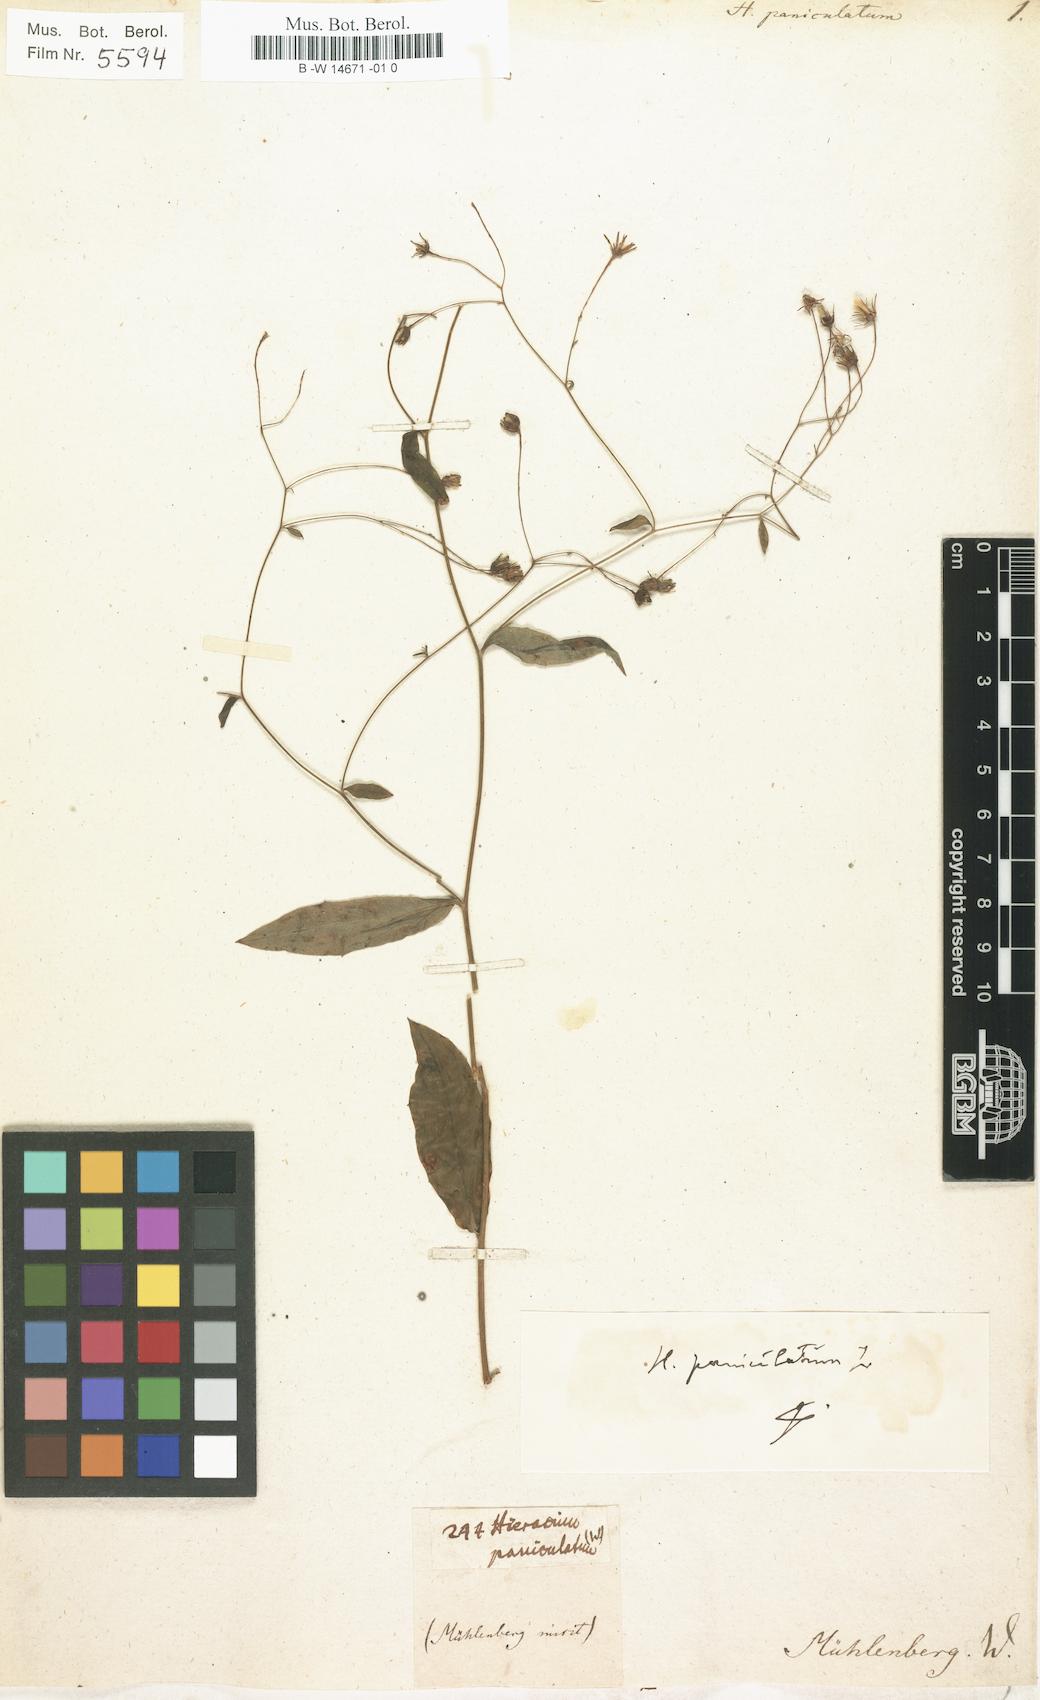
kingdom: Plantae
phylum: Tracheophyta
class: Magnoliopsida
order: Asterales
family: Asteraceae
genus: Hieracium
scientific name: Hieracium paniculatum
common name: Allegheny hawkweed
